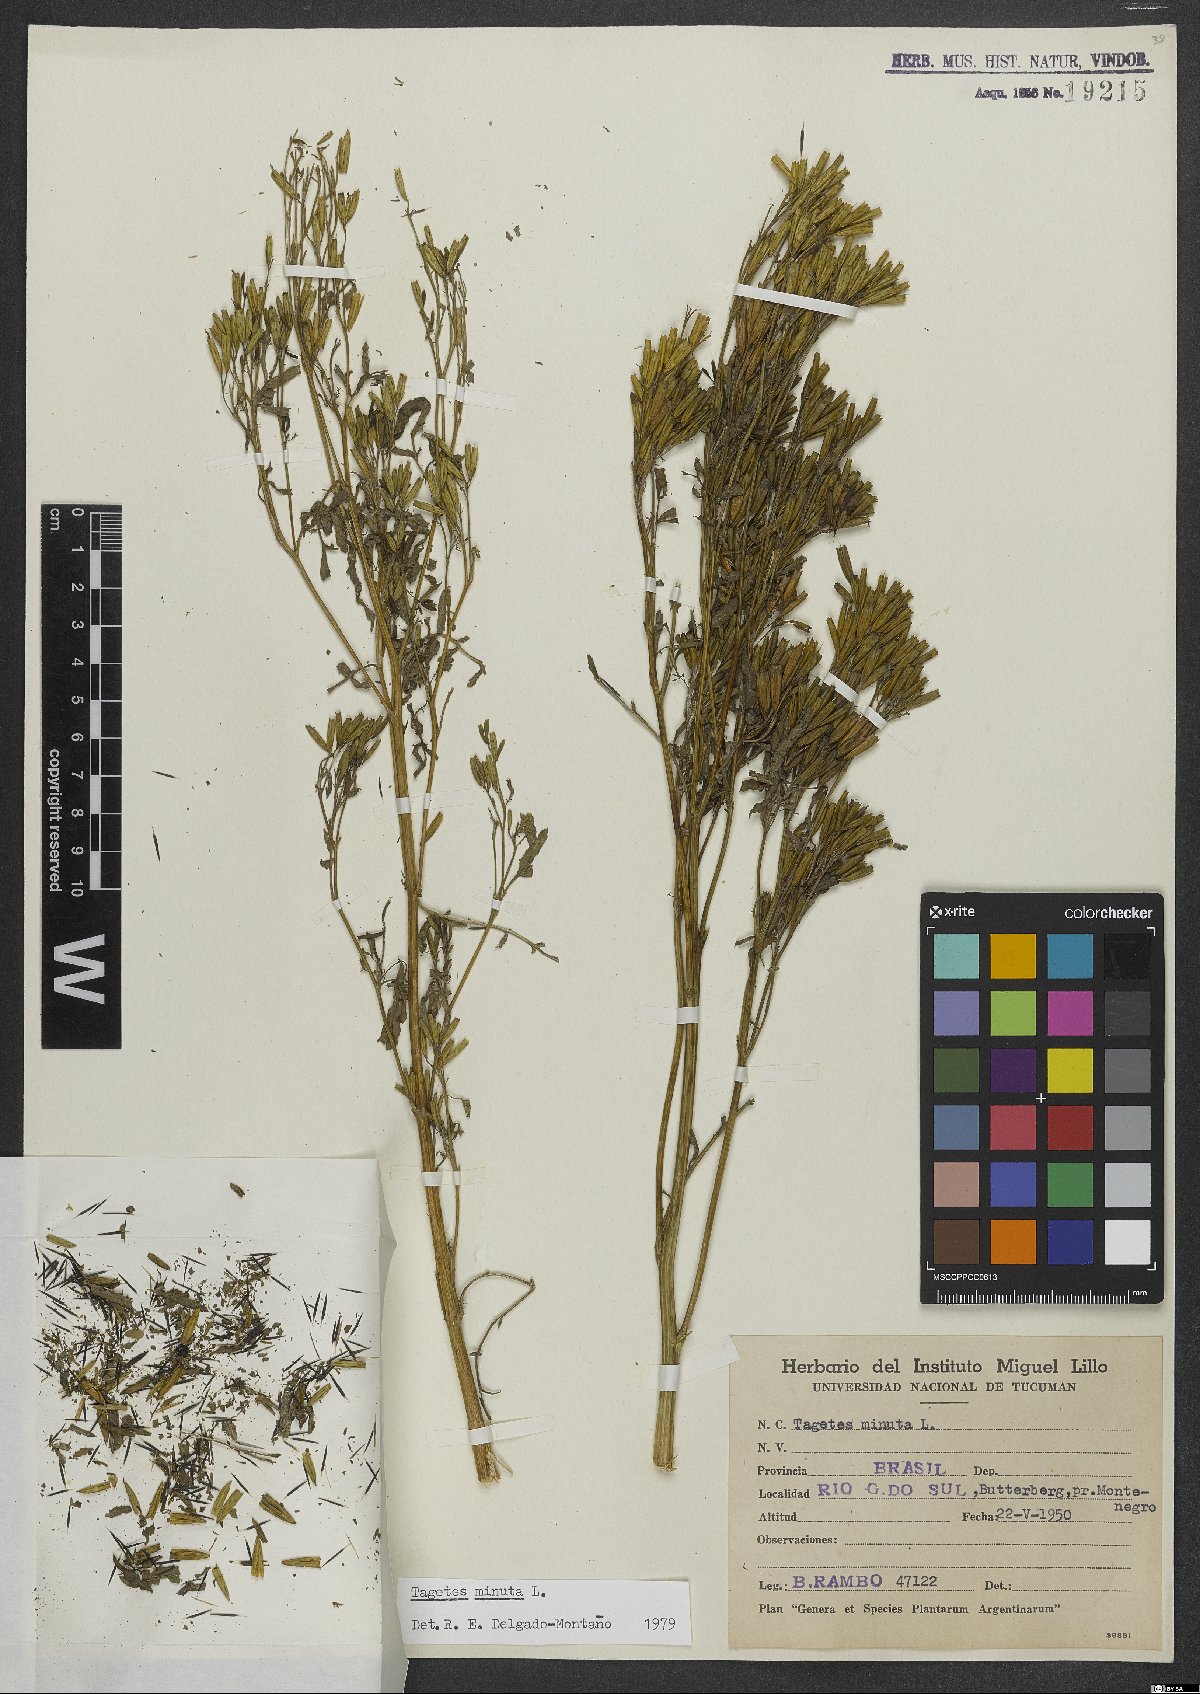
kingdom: Plantae
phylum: Tracheophyta
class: Magnoliopsida
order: Asterales
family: Asteraceae
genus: Tagetes
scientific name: Tagetes minuta
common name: Muster john henry
